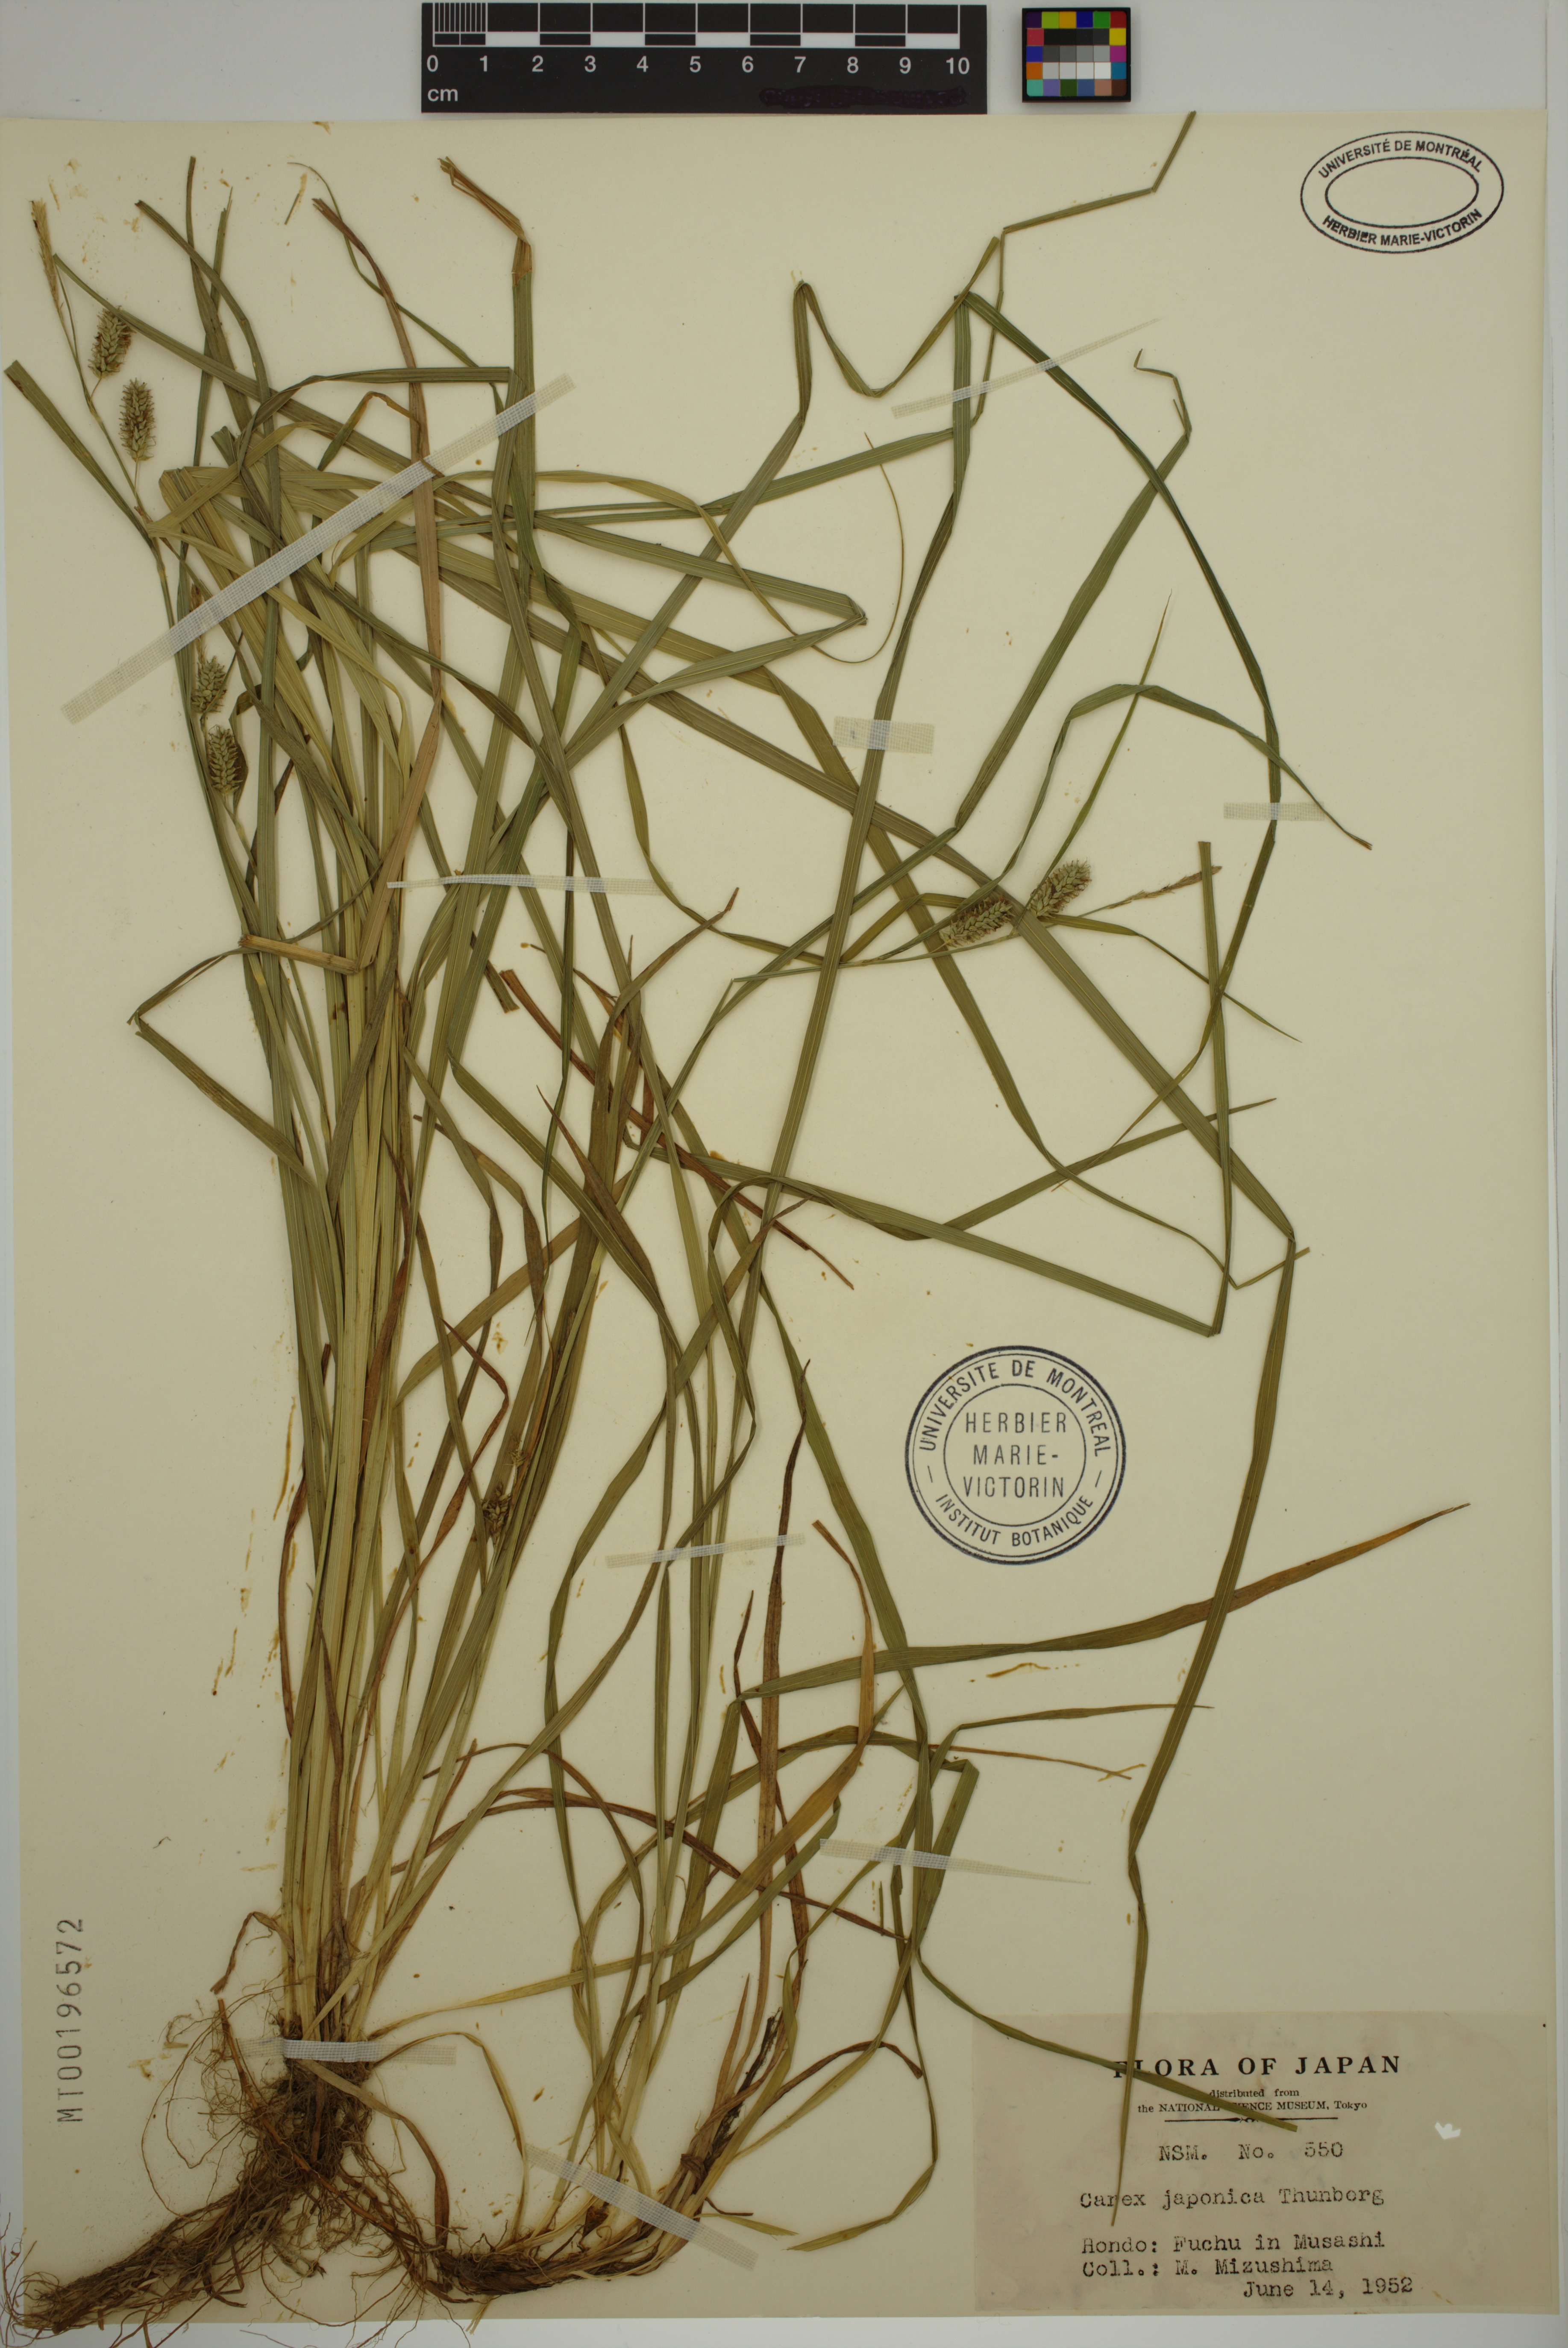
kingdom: Plantae
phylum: Tracheophyta
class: Liliopsida
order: Poales
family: Cyperaceae
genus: Carex
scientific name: Carex japonica
